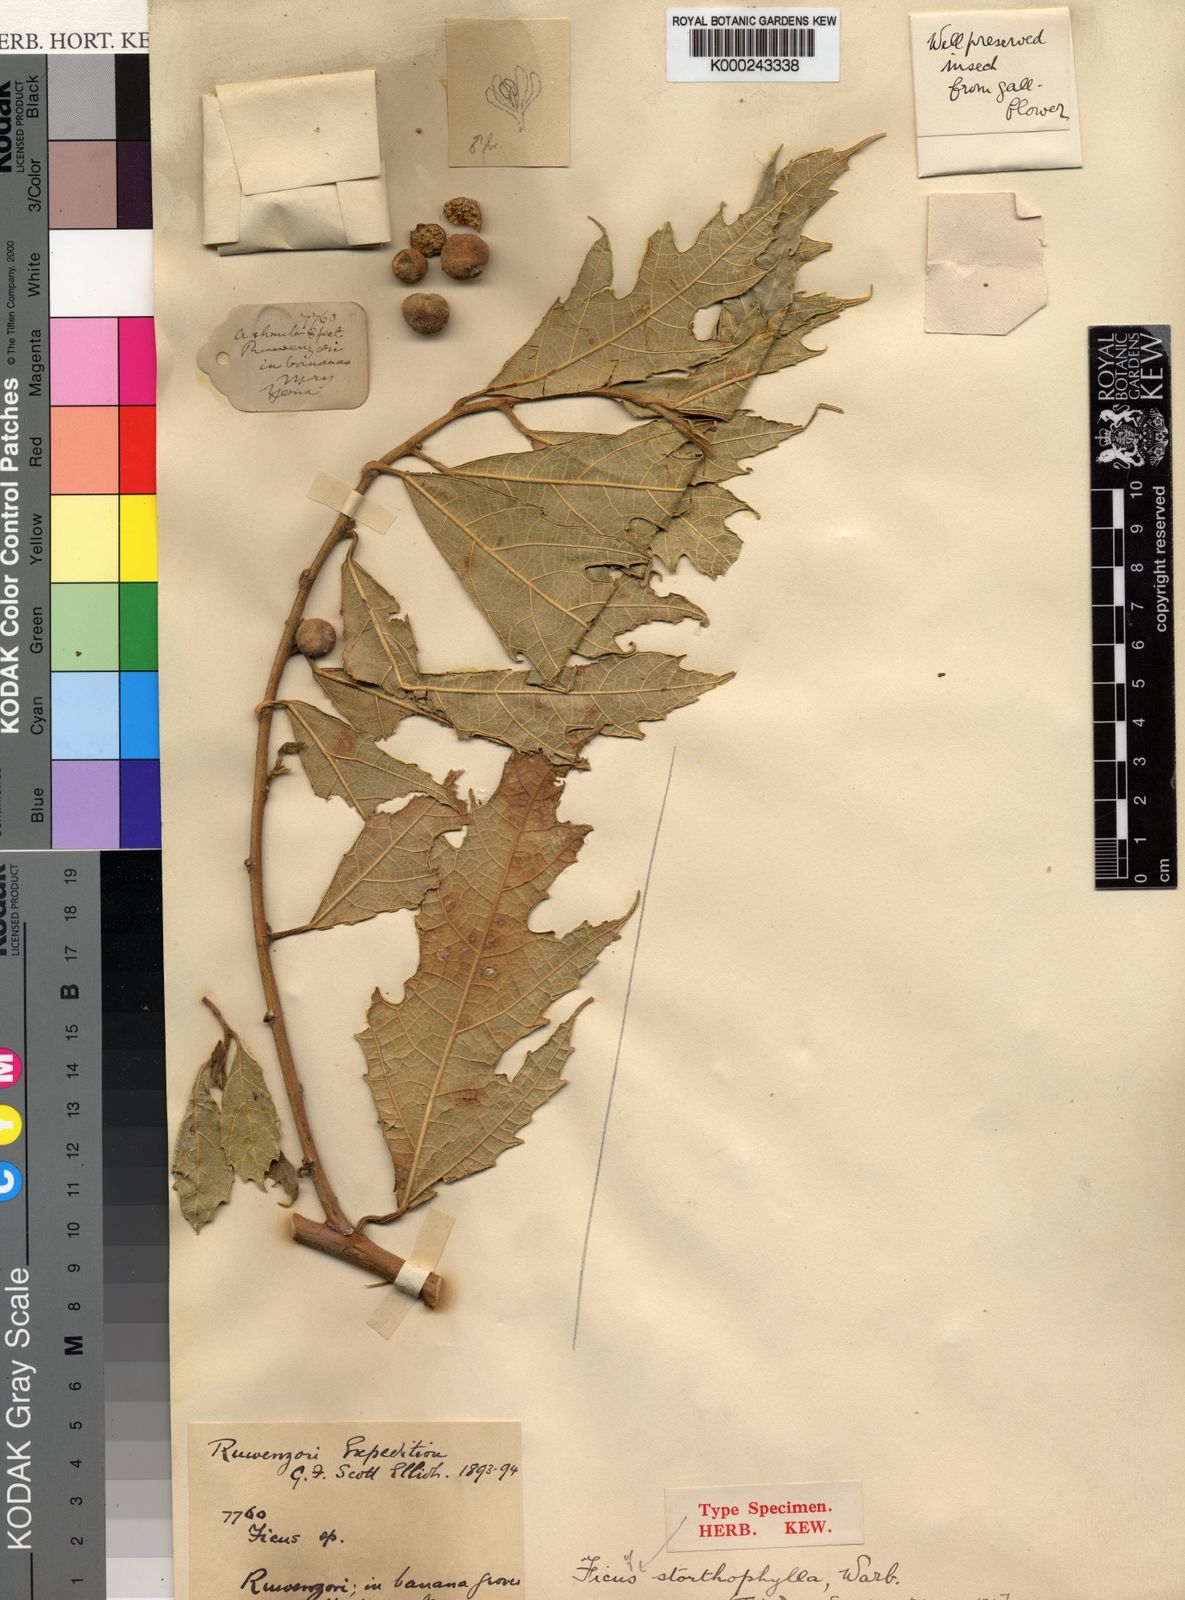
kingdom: Plantae
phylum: Tracheophyta
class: Magnoliopsida
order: Rosales
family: Moraceae
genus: Ficus
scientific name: Ficus asperifolia
